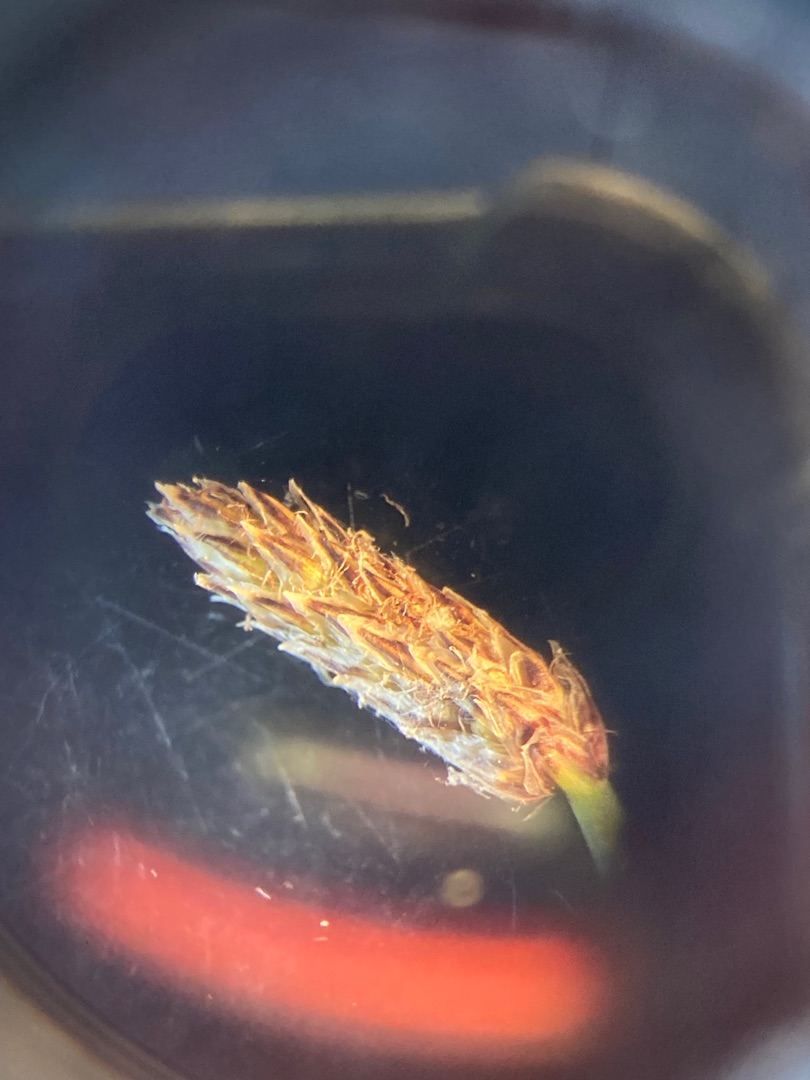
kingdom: Plantae
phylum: Tracheophyta
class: Liliopsida
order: Poales
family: Cyperaceae
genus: Eleocharis
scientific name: Eleocharis palustris
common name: Almindelig sumpstrå
